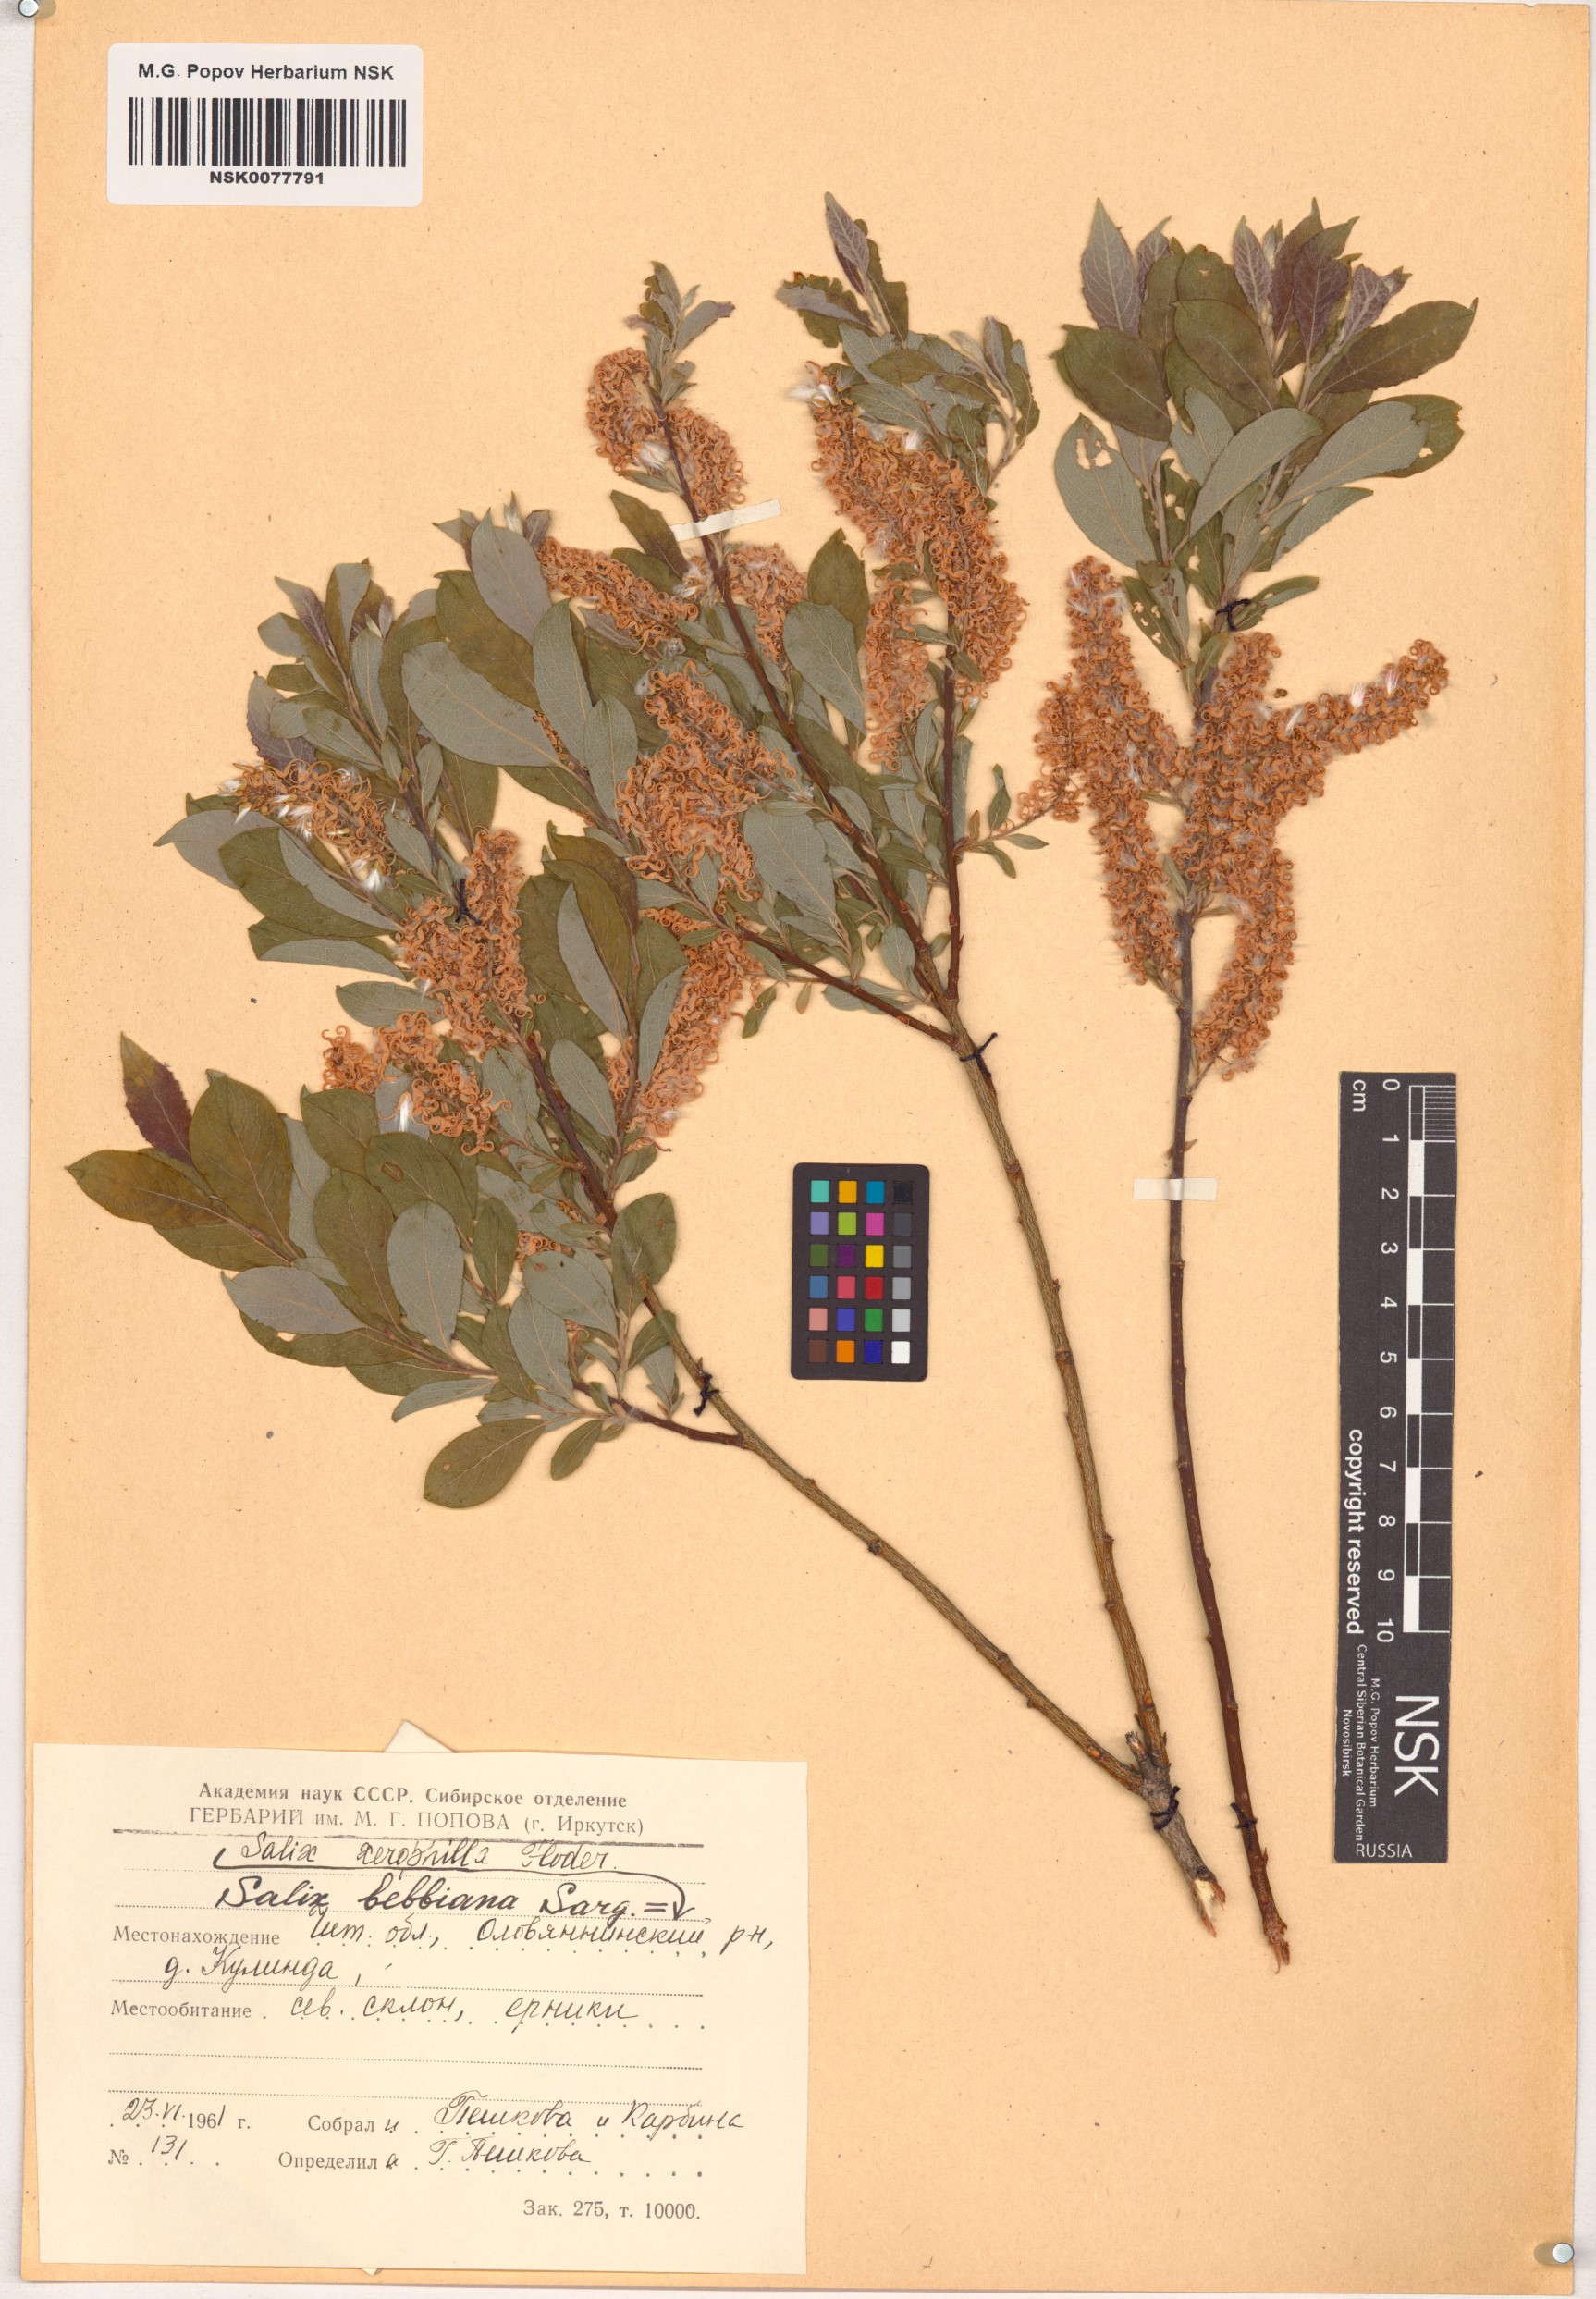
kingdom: Plantae
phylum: Tracheophyta
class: Magnoliopsida
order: Malpighiales
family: Salicaceae
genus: Salix
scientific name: Salix bebbiana
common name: Bebb's willow
